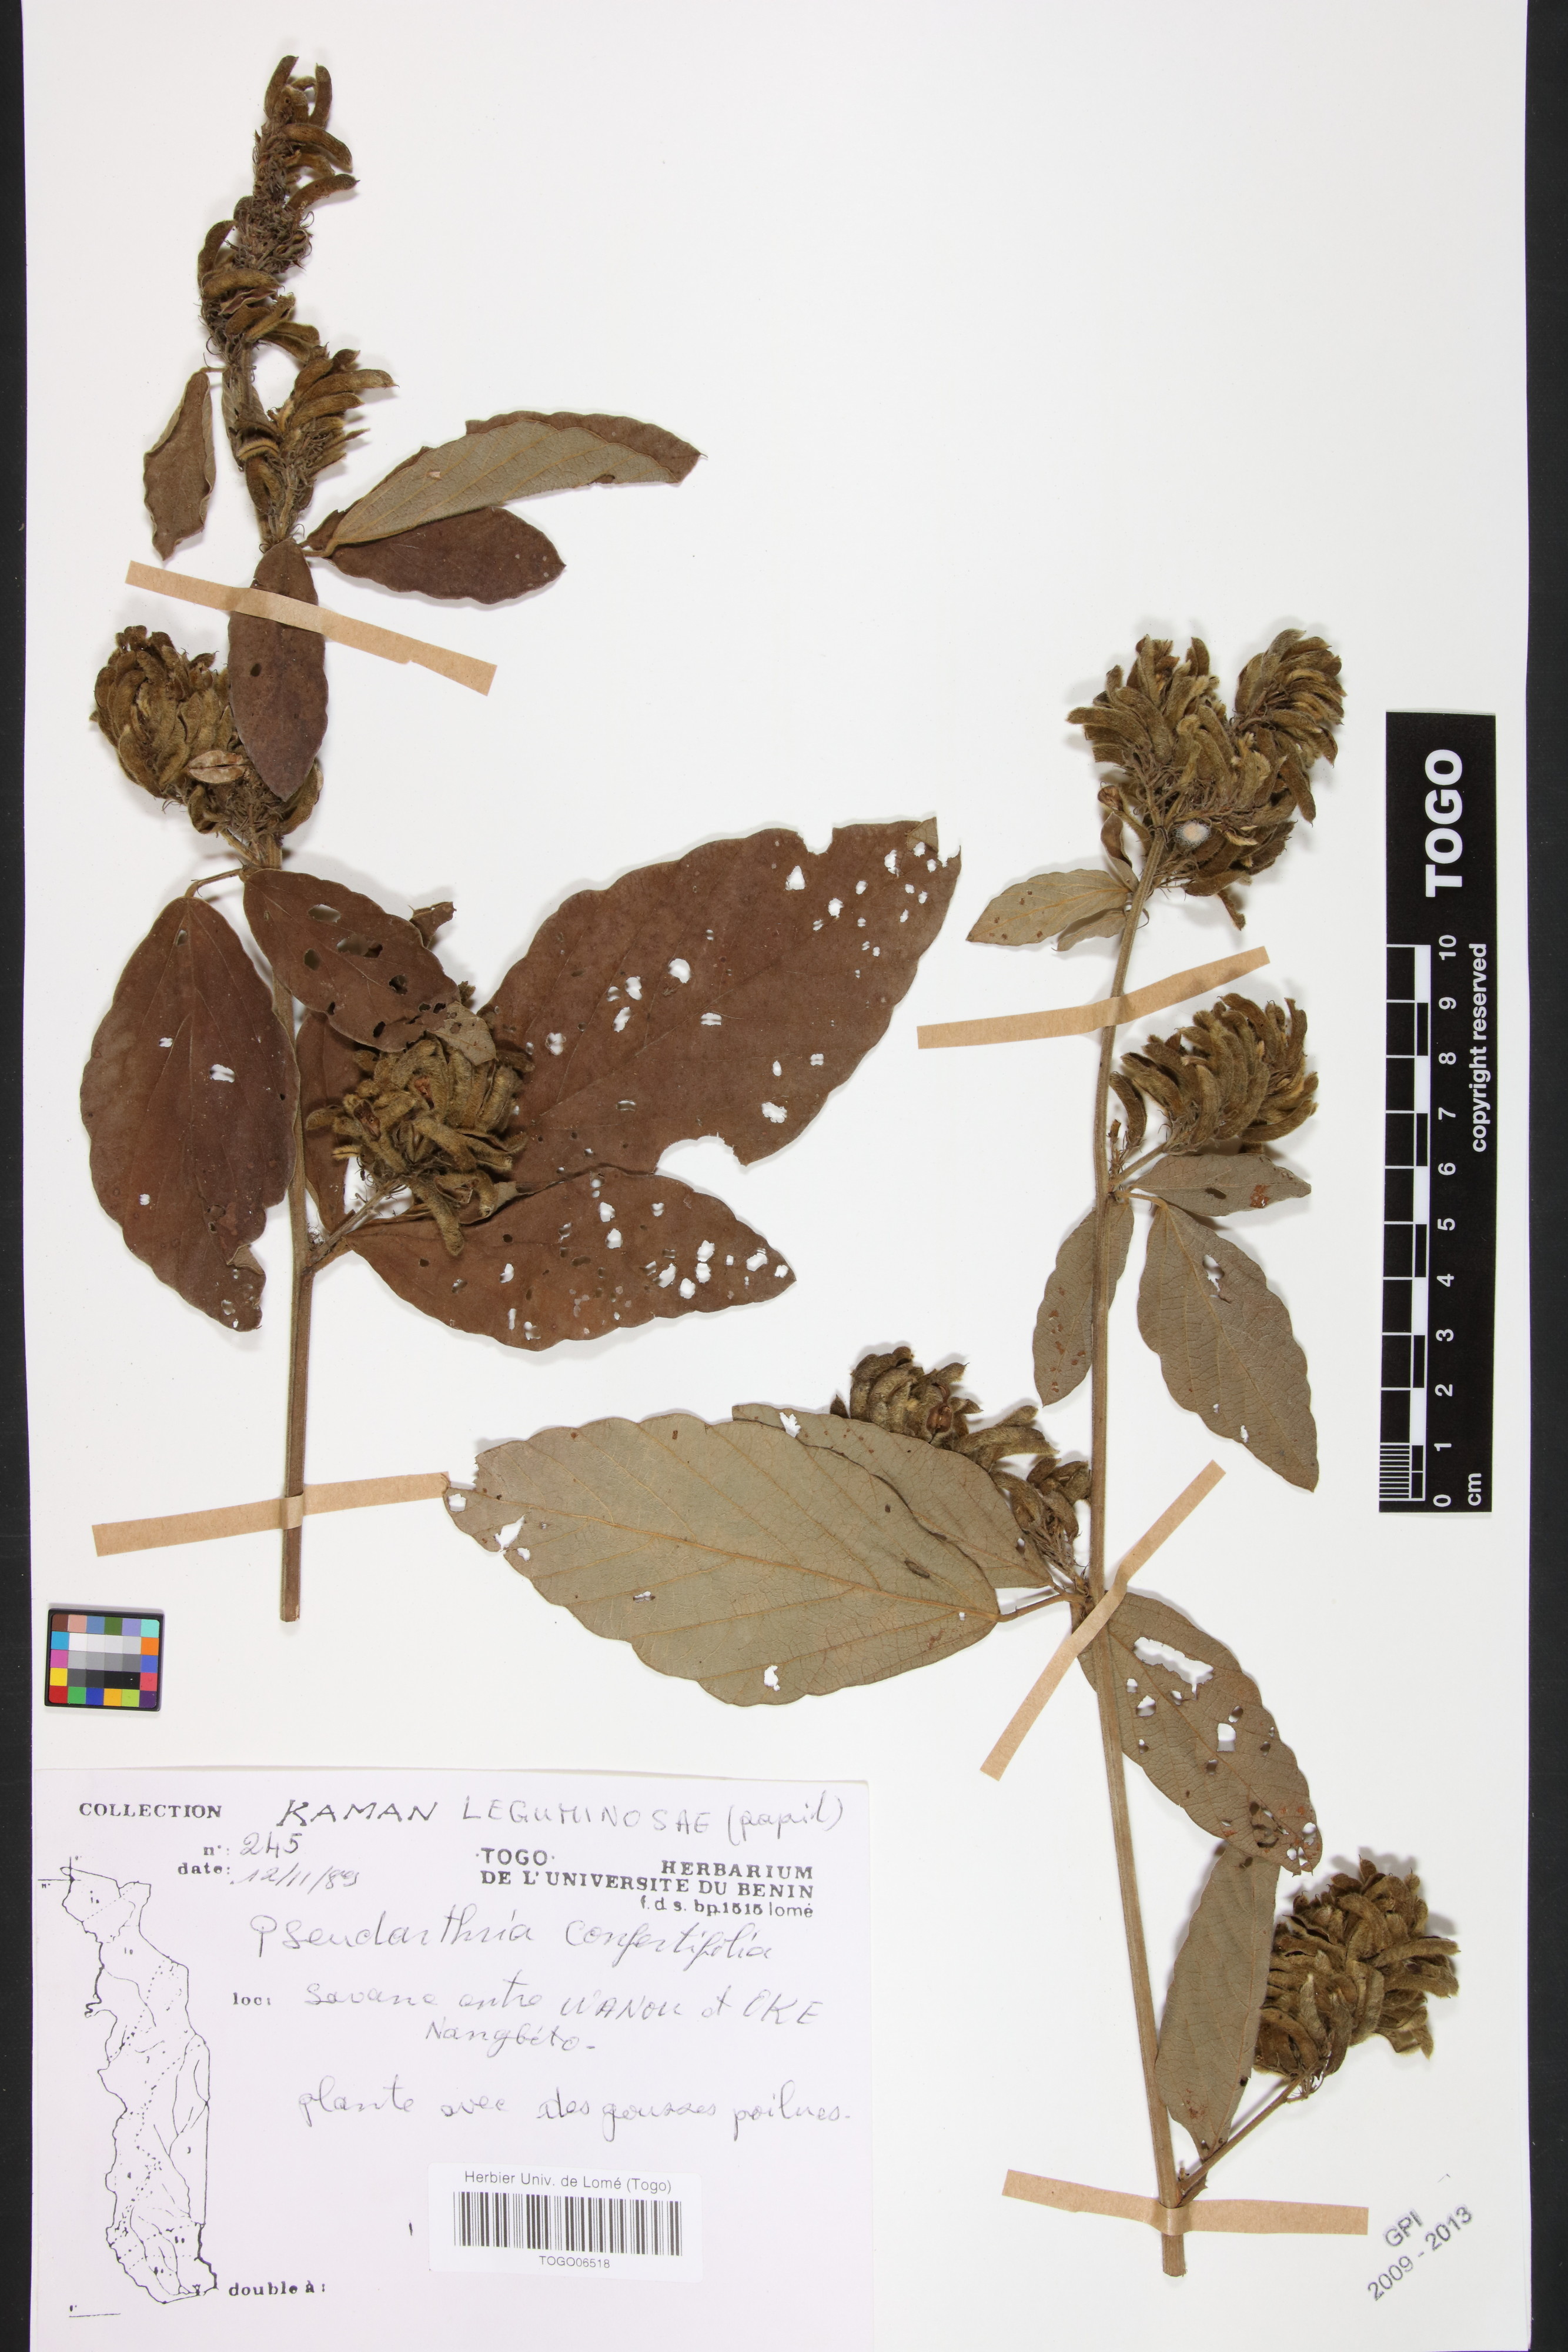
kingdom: Plantae
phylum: Tracheophyta
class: Magnoliopsida
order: Fabales
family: Fabaceae
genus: Pseudarthria
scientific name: Pseudarthria confertiflora
